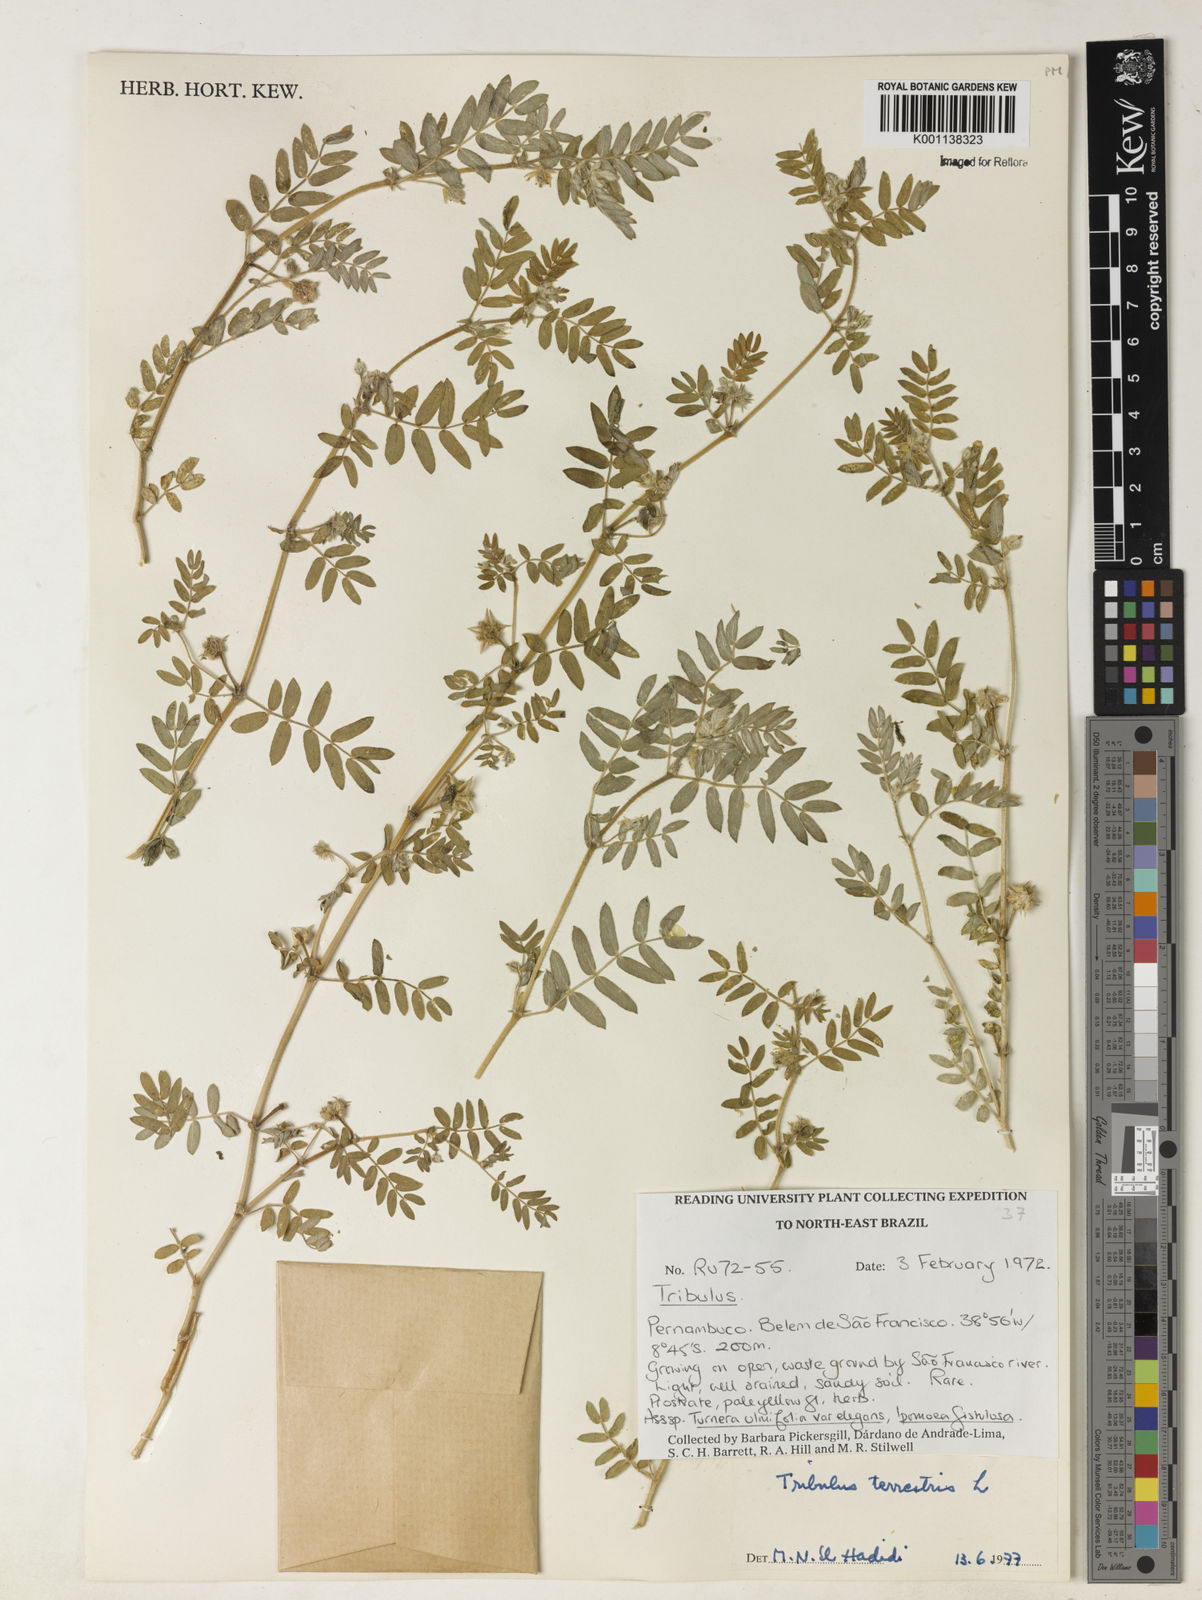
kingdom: Plantae
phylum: Tracheophyta
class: Magnoliopsida
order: Zygophyllales
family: Zygophyllaceae
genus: Tribulus
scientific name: Tribulus
